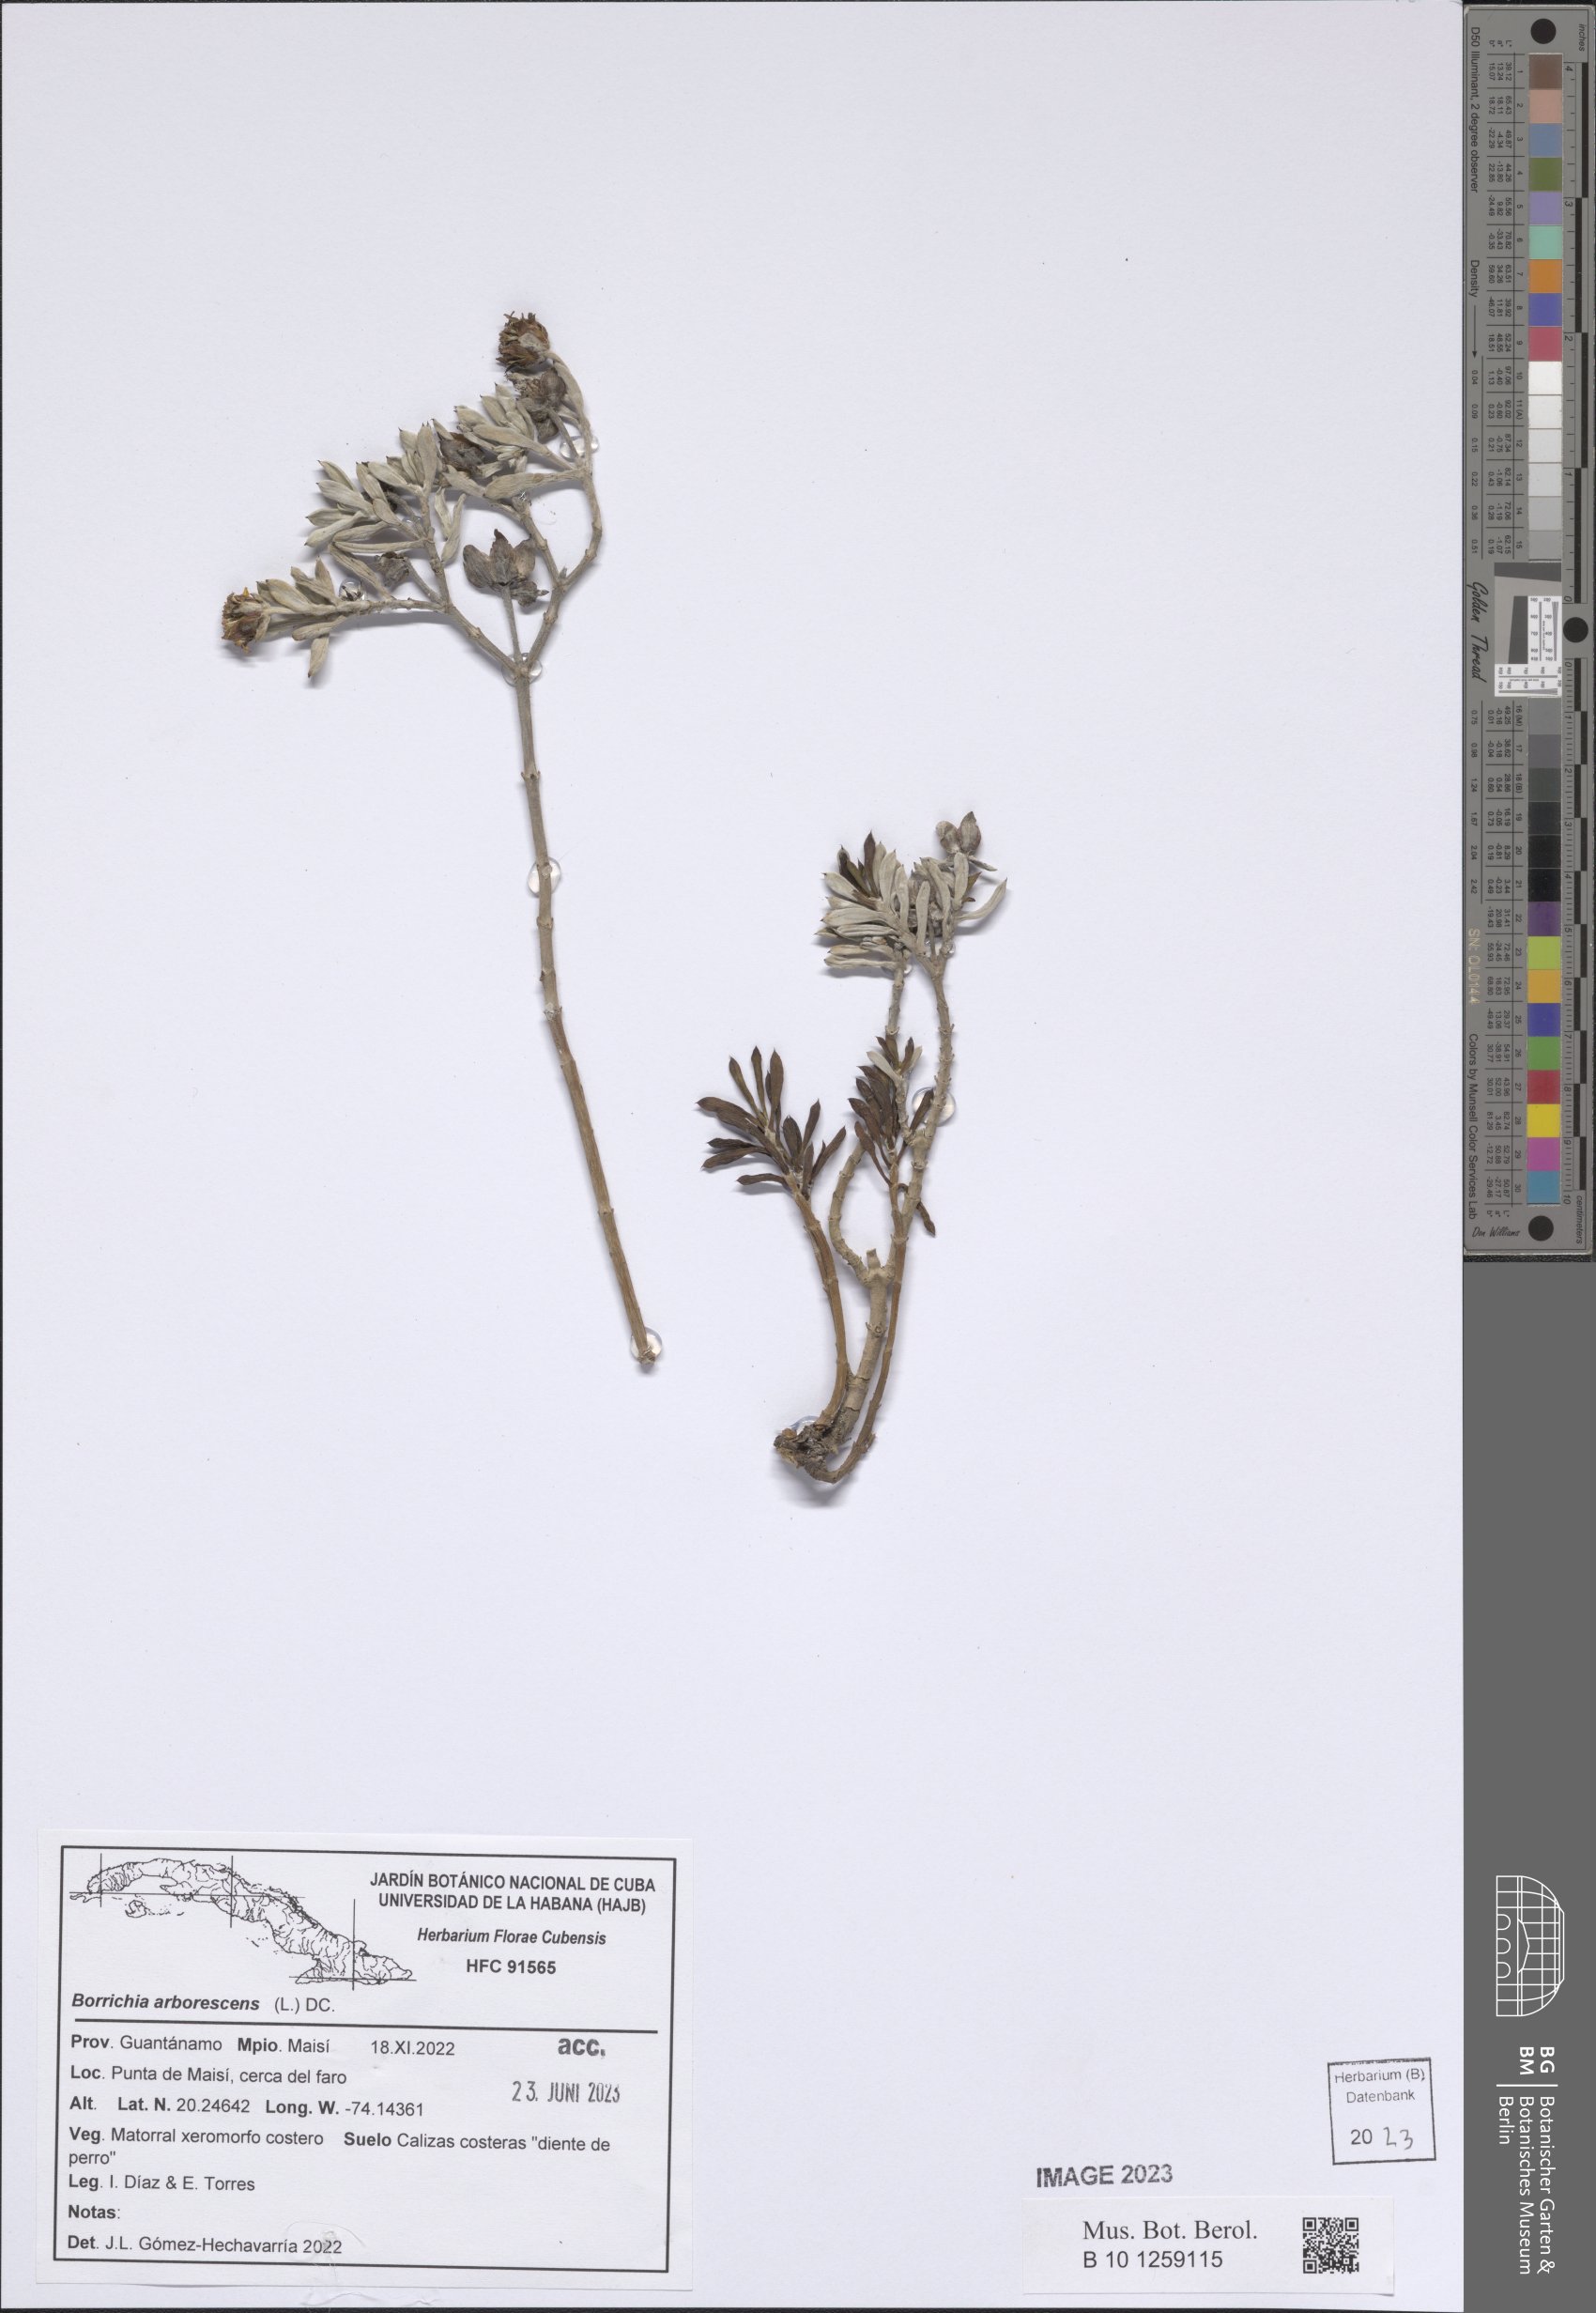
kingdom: Plantae
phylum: Tracheophyta
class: Magnoliopsida
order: Asterales
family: Asteraceae
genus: Borrichia
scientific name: Borrichia arborescens
